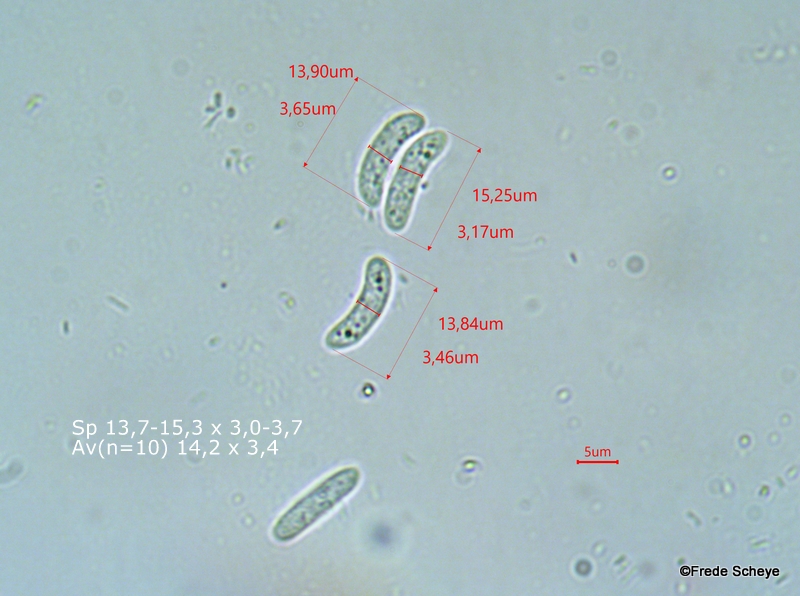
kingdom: Fungi
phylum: Basidiomycota
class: Agaricomycetes
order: Auriculariales
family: Auriculariaceae
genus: Exidia
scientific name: Exidia recisa
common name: pile-bævretop
